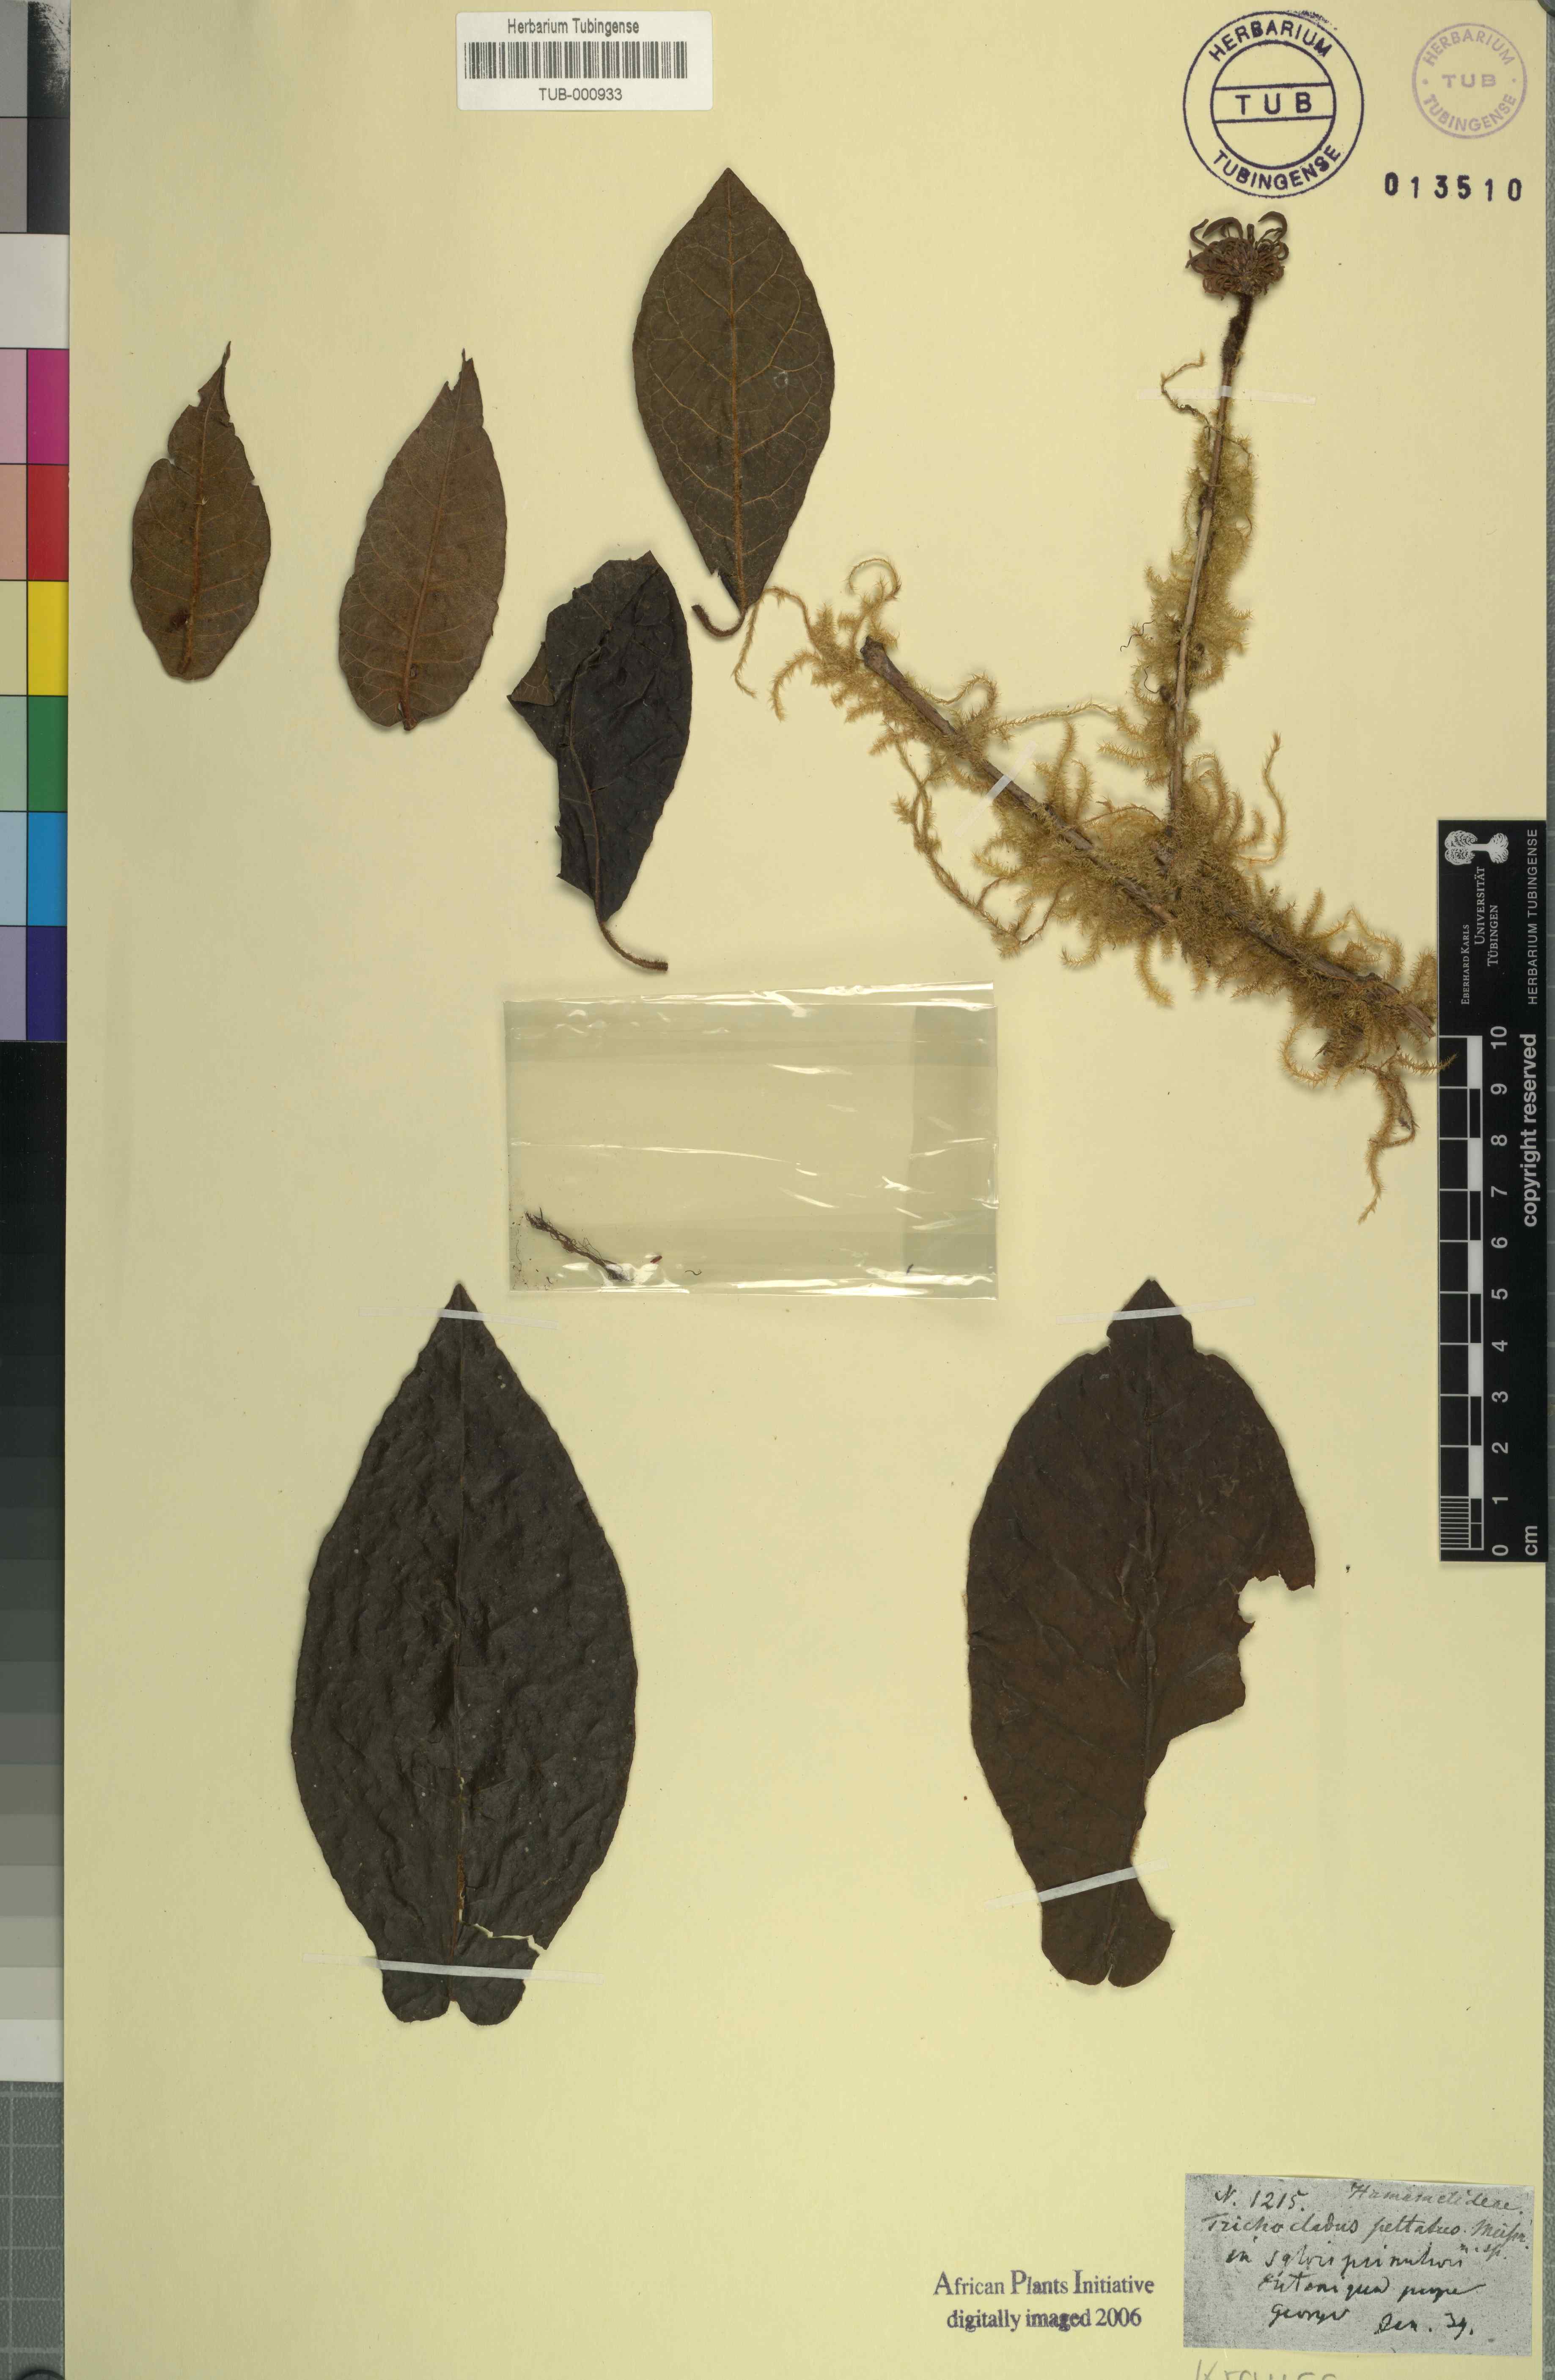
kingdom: Plantae
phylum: Tracheophyta
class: Magnoliopsida
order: Saxifragales
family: Hamamelidaceae
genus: Trichocladus
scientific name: Trichocladus crinitus
